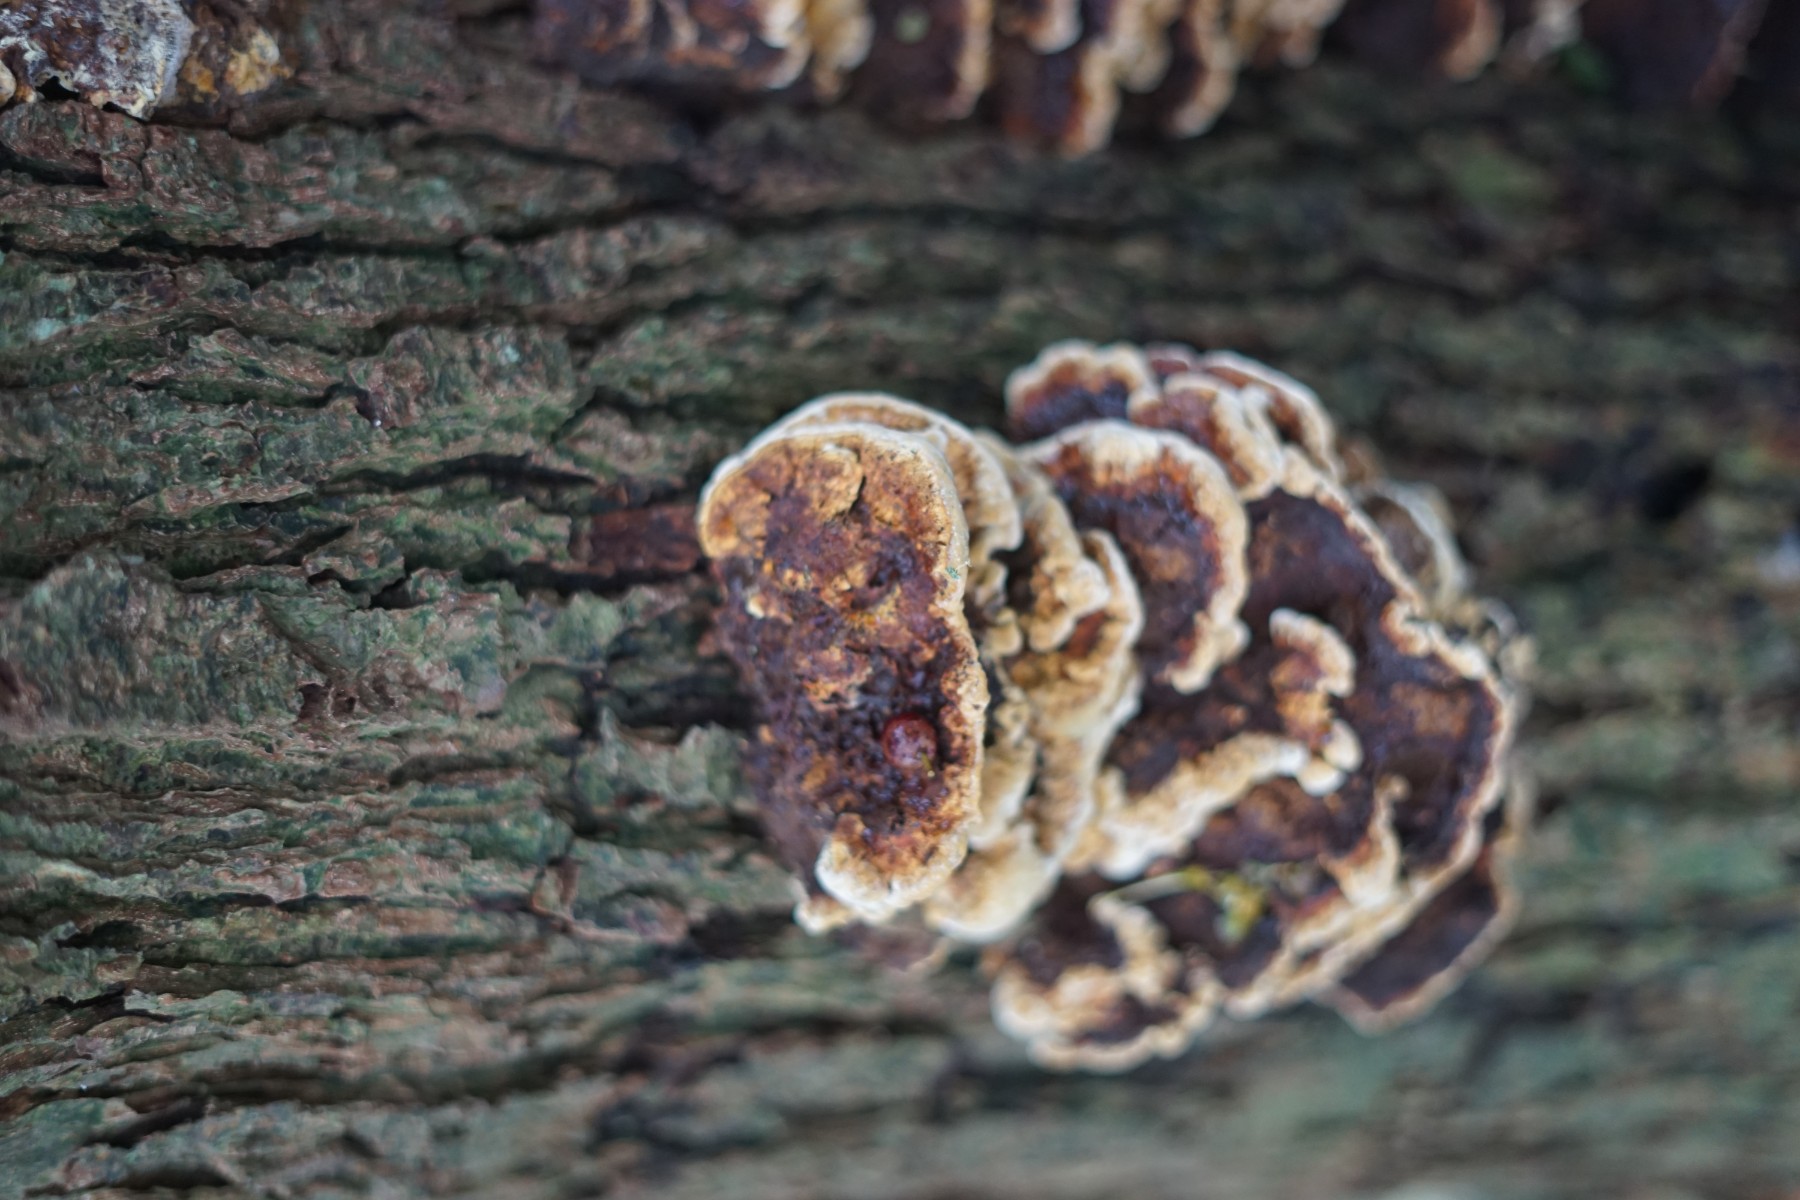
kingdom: Fungi
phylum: Basidiomycota
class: Agaricomycetes
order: Hymenochaetales
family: Hymenochaetaceae
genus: Xanthoporia
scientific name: Xanthoporia radiata
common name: elle-spejlporesvamp
